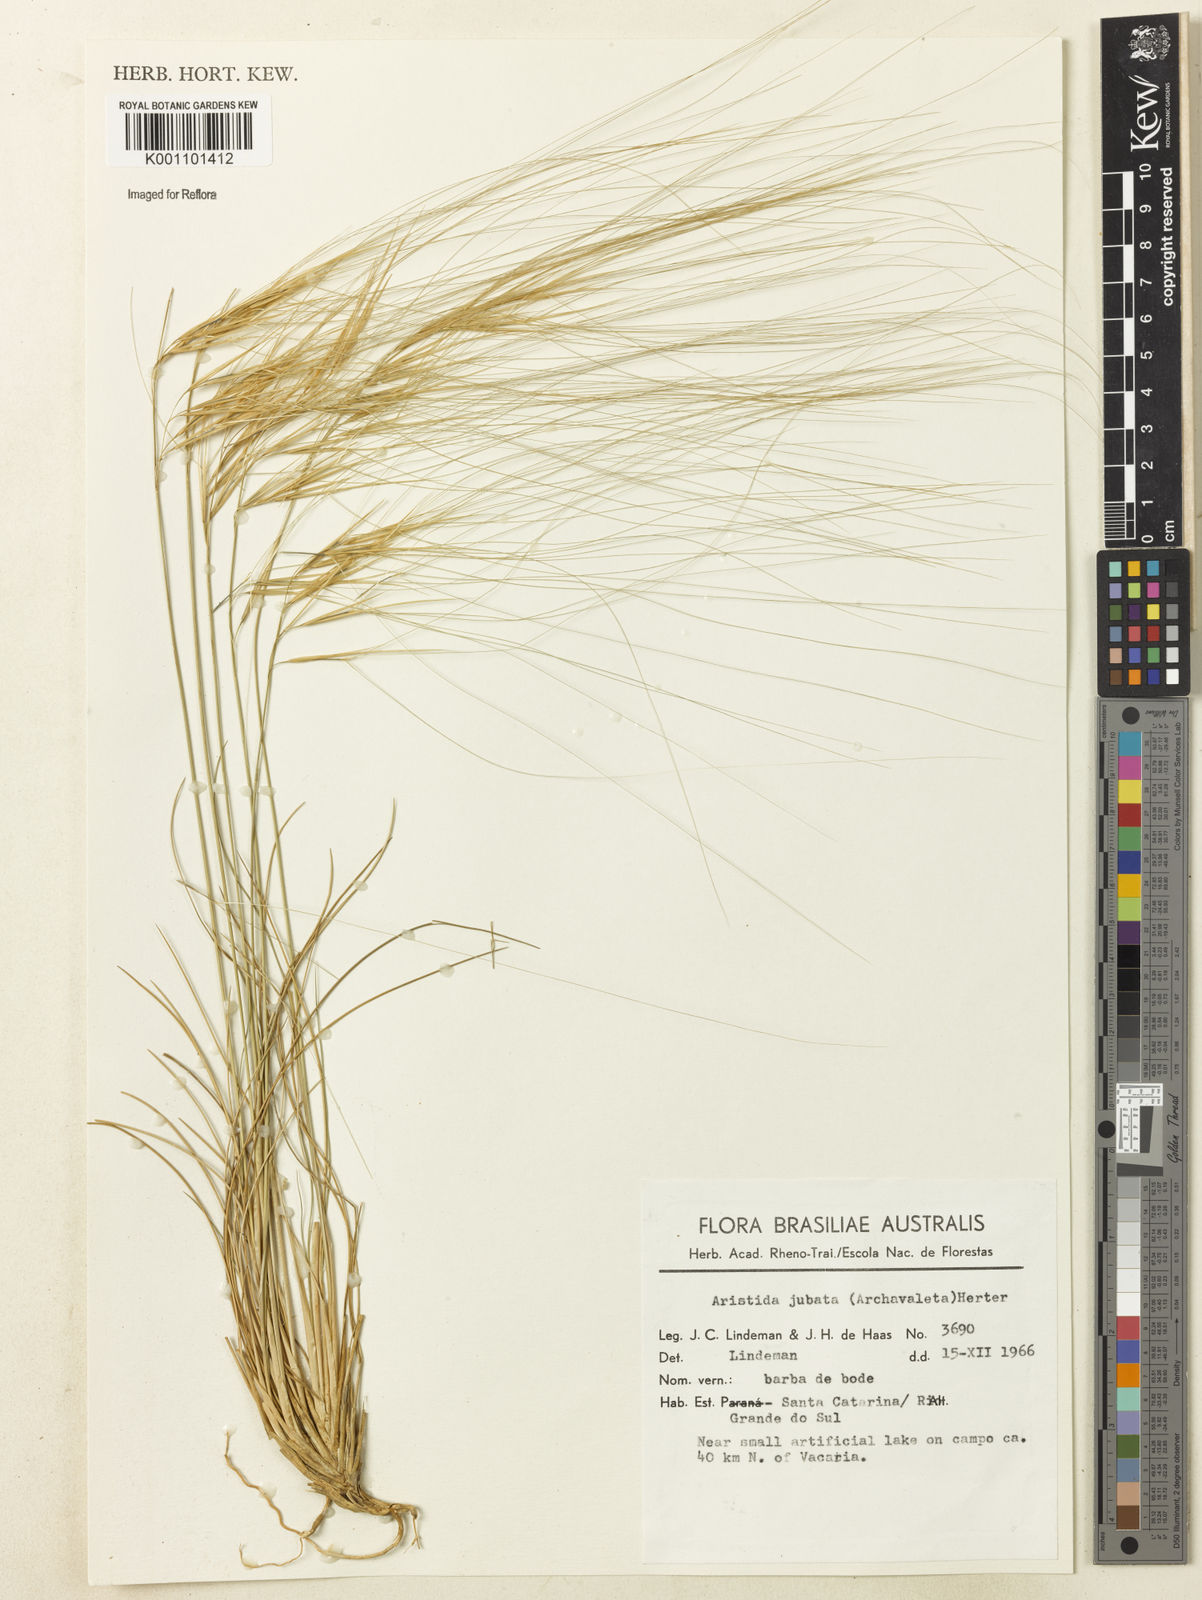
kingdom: Plantae
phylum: Tracheophyta
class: Liliopsida
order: Poales
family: Poaceae
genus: Aristida
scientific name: Aristida jubata
